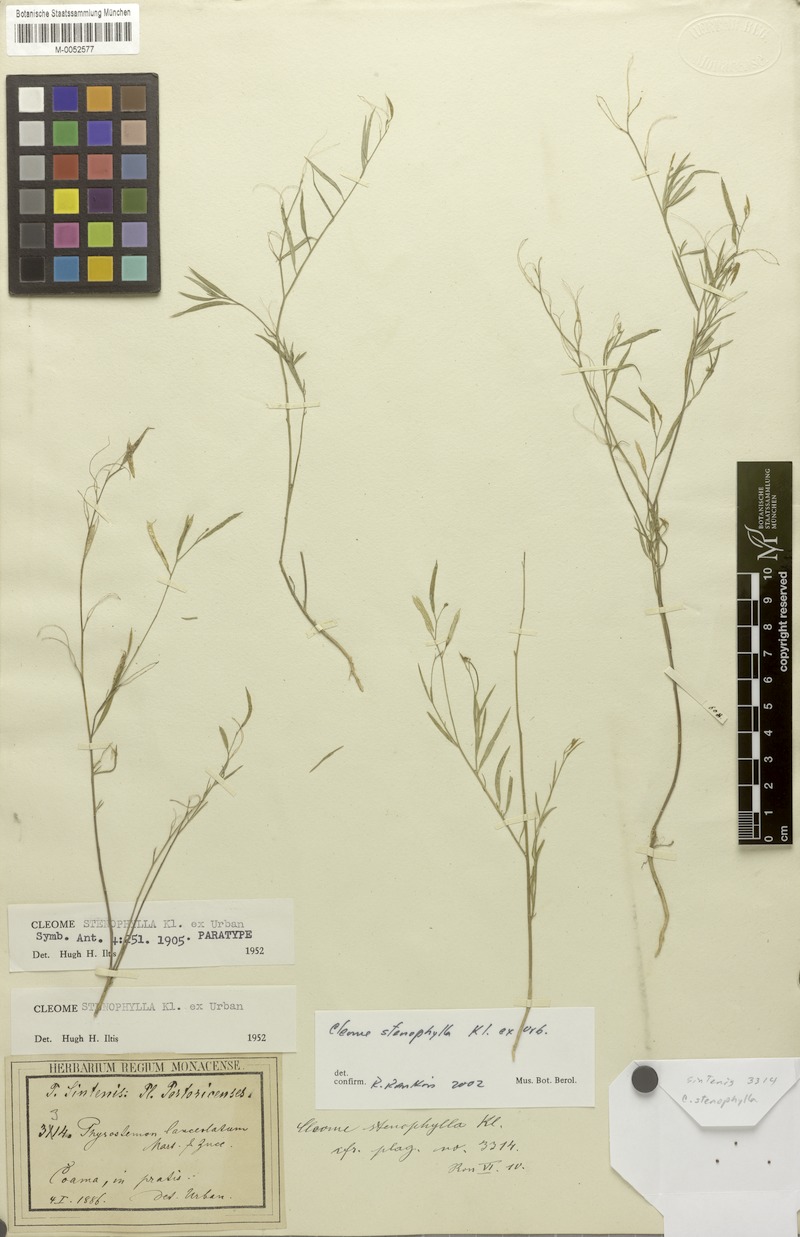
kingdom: Plantae
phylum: Tracheophyta
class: Magnoliopsida
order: Brassicales
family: Cleomaceae
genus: Physostemon
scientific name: Physostemon stenophyllus
